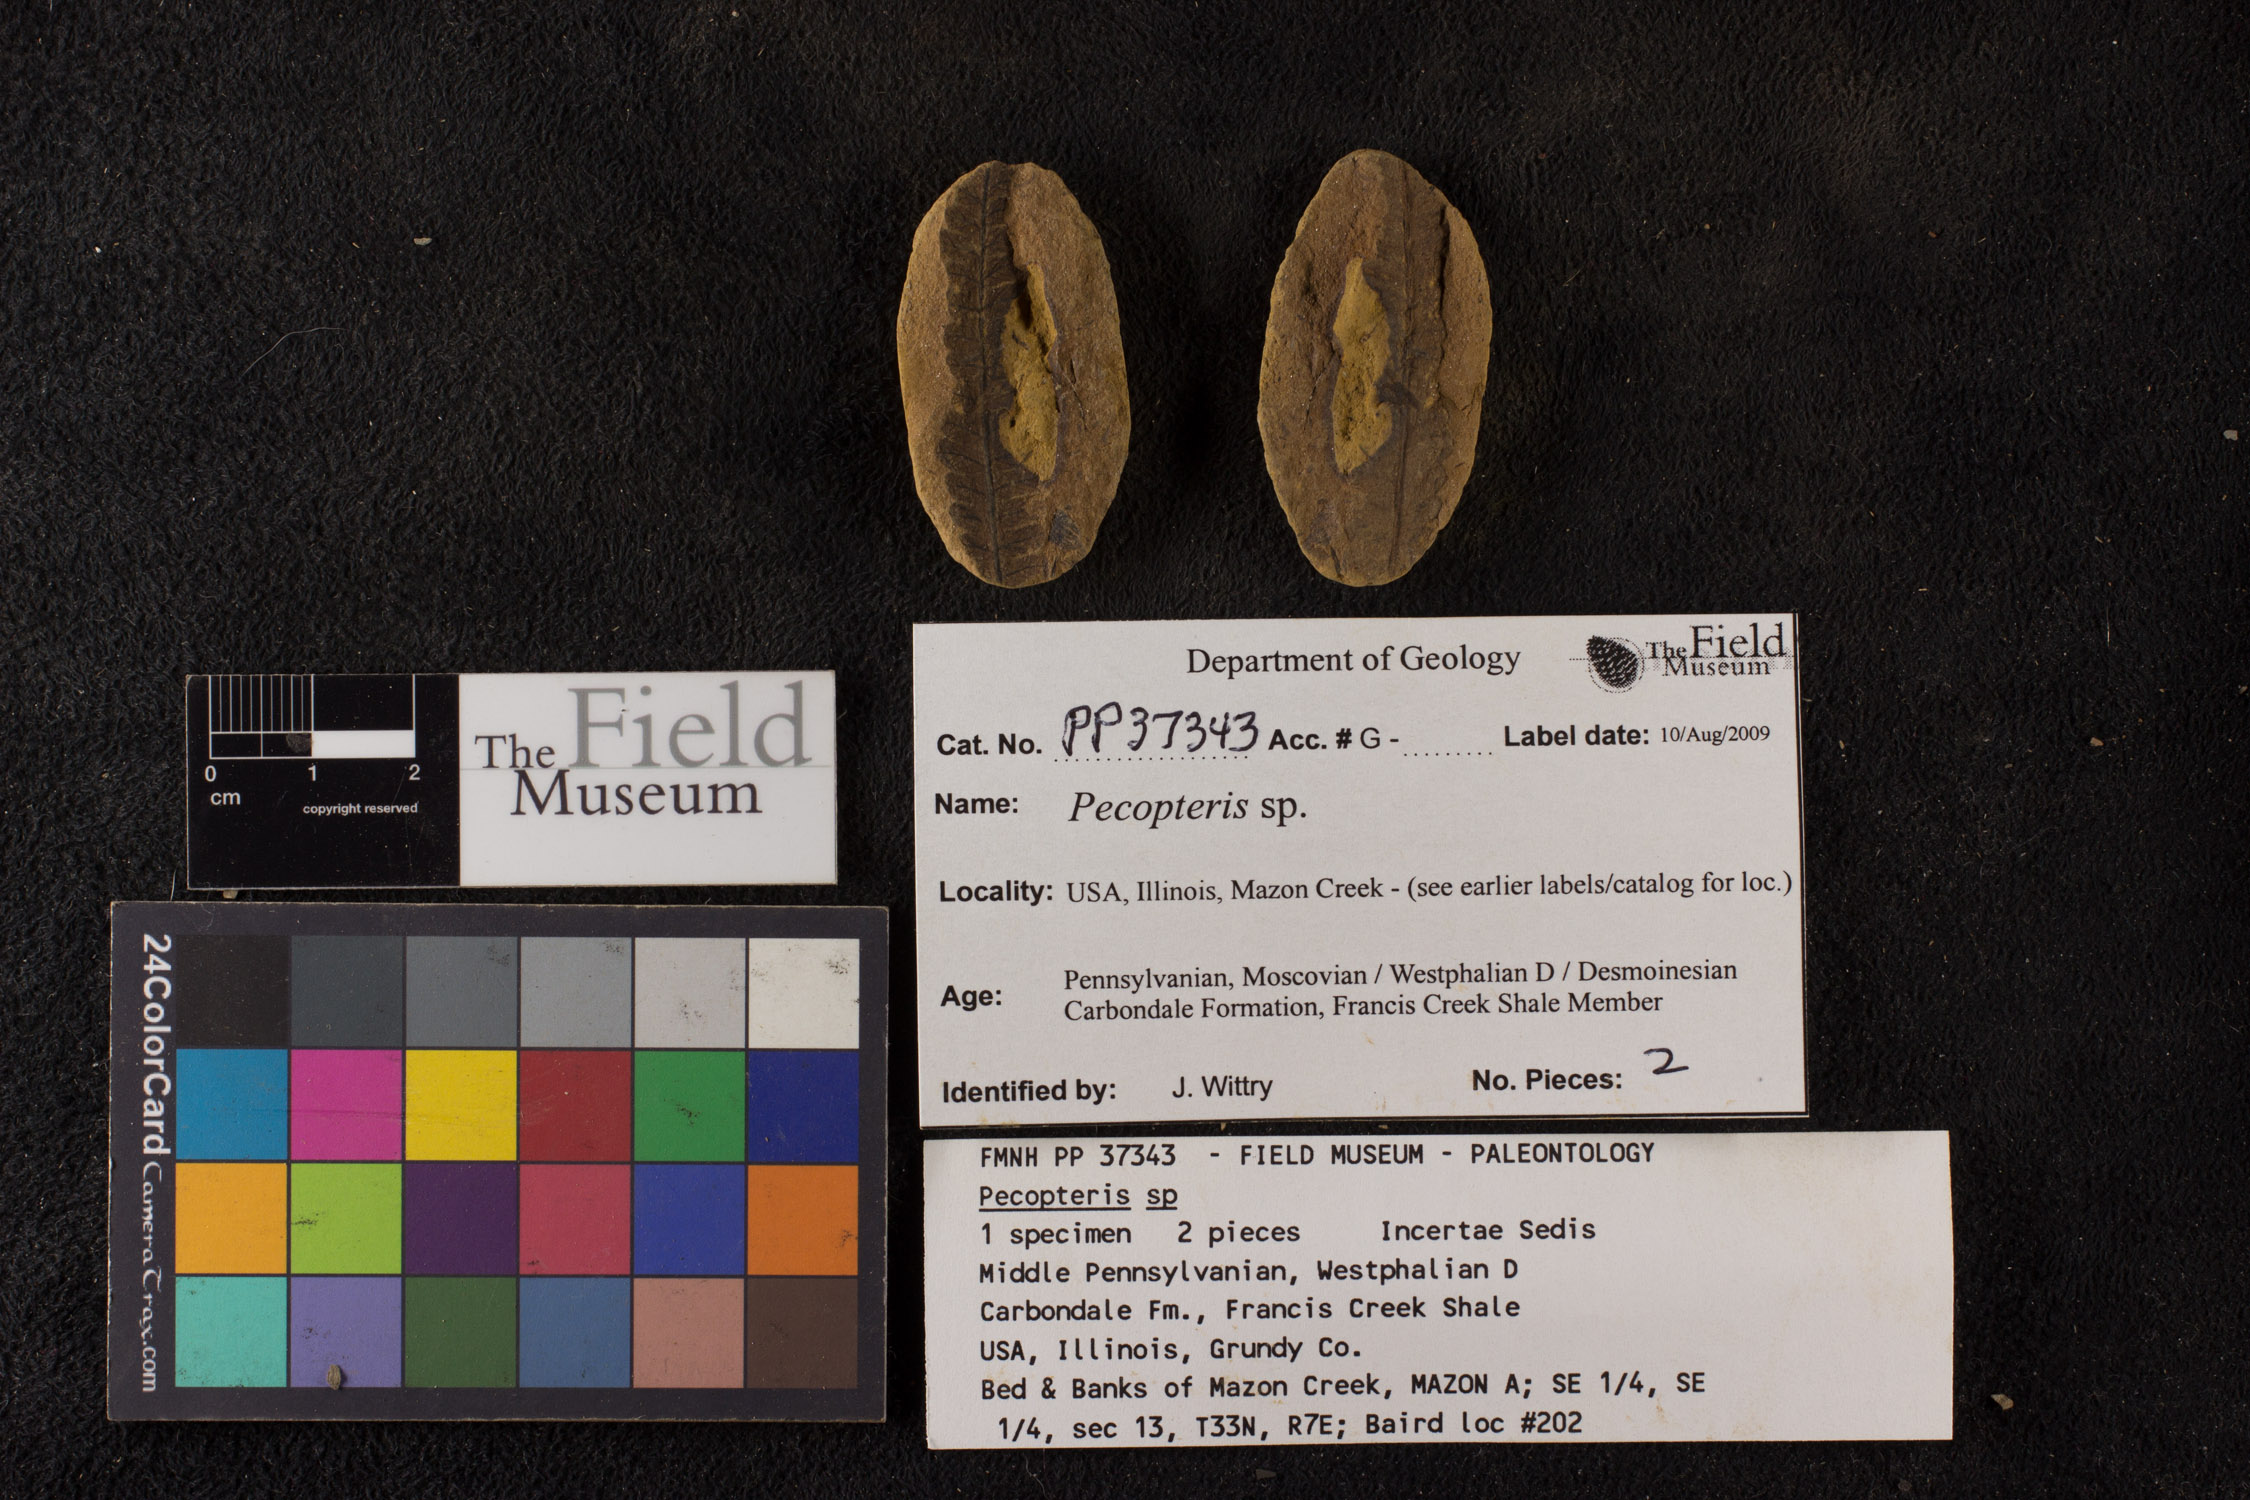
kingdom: Plantae
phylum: Tracheophyta
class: Polypodiopsida
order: Marattiales
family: Asterothecaceae
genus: Pecopteris
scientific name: Pecopteris
